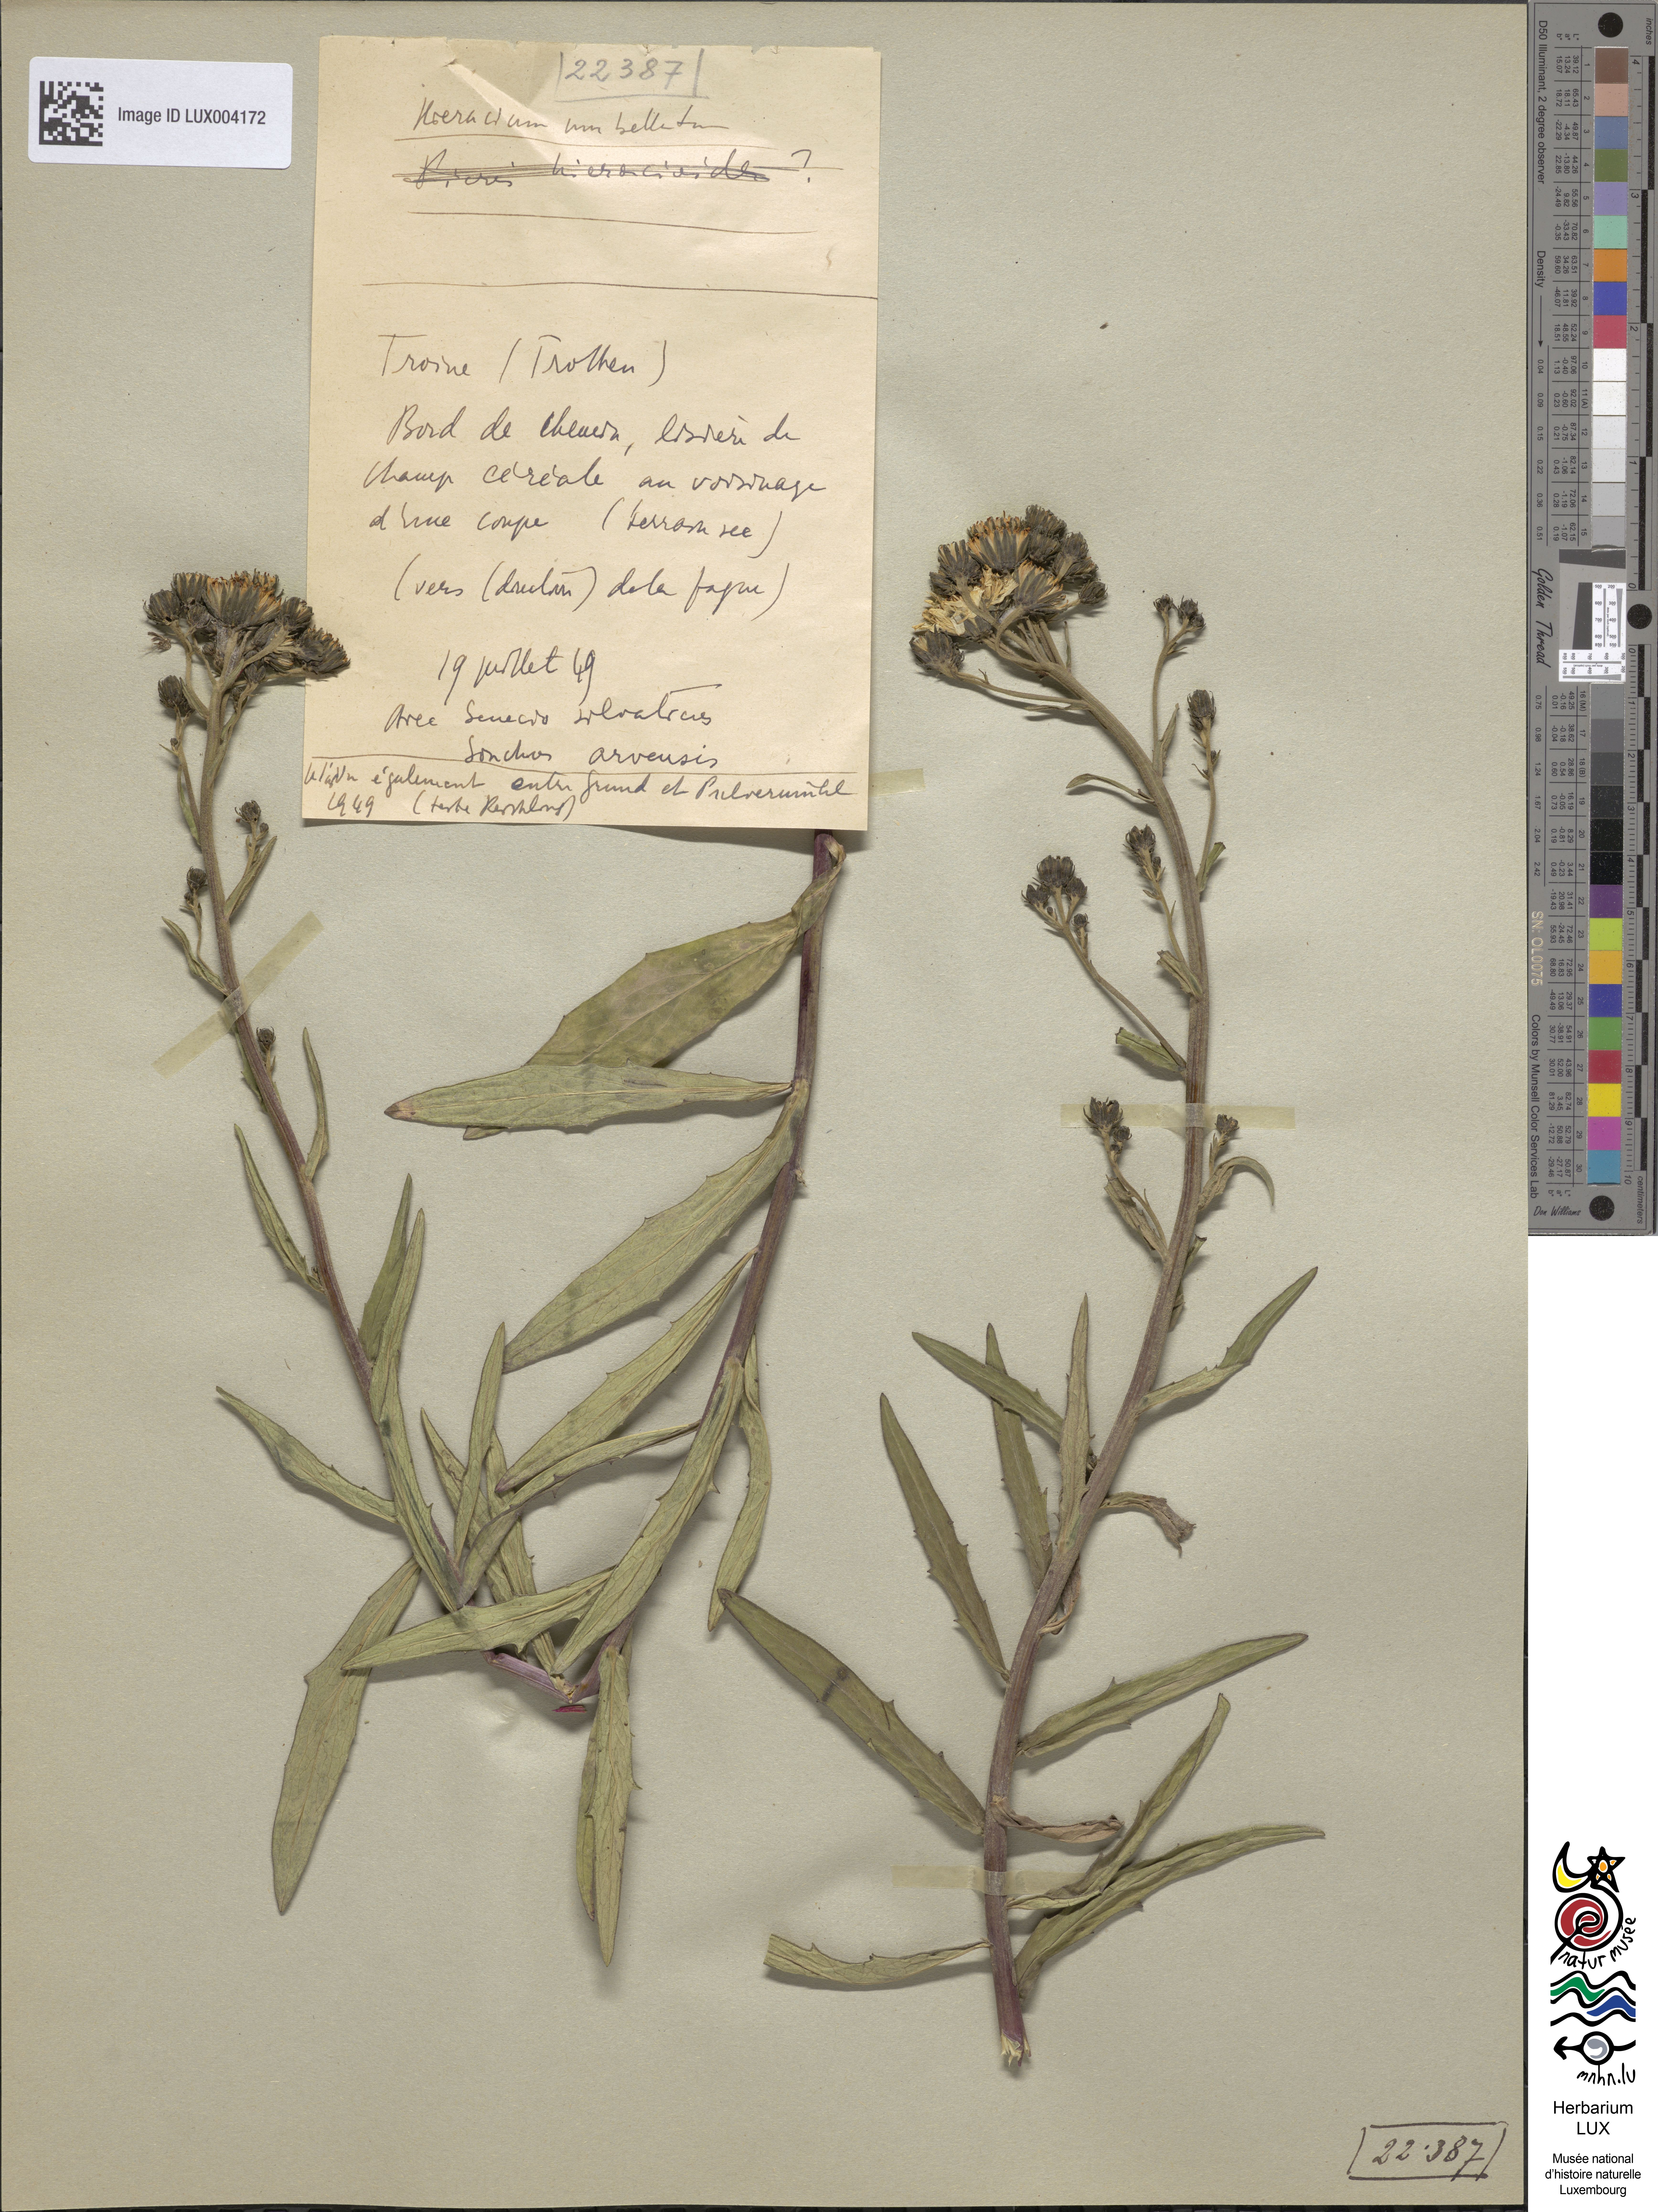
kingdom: Plantae
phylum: Tracheophyta
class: Magnoliopsida
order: Asterales
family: Asteraceae
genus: Hieracium
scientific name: Hieracium umbellatum
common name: Northern hawkweed
